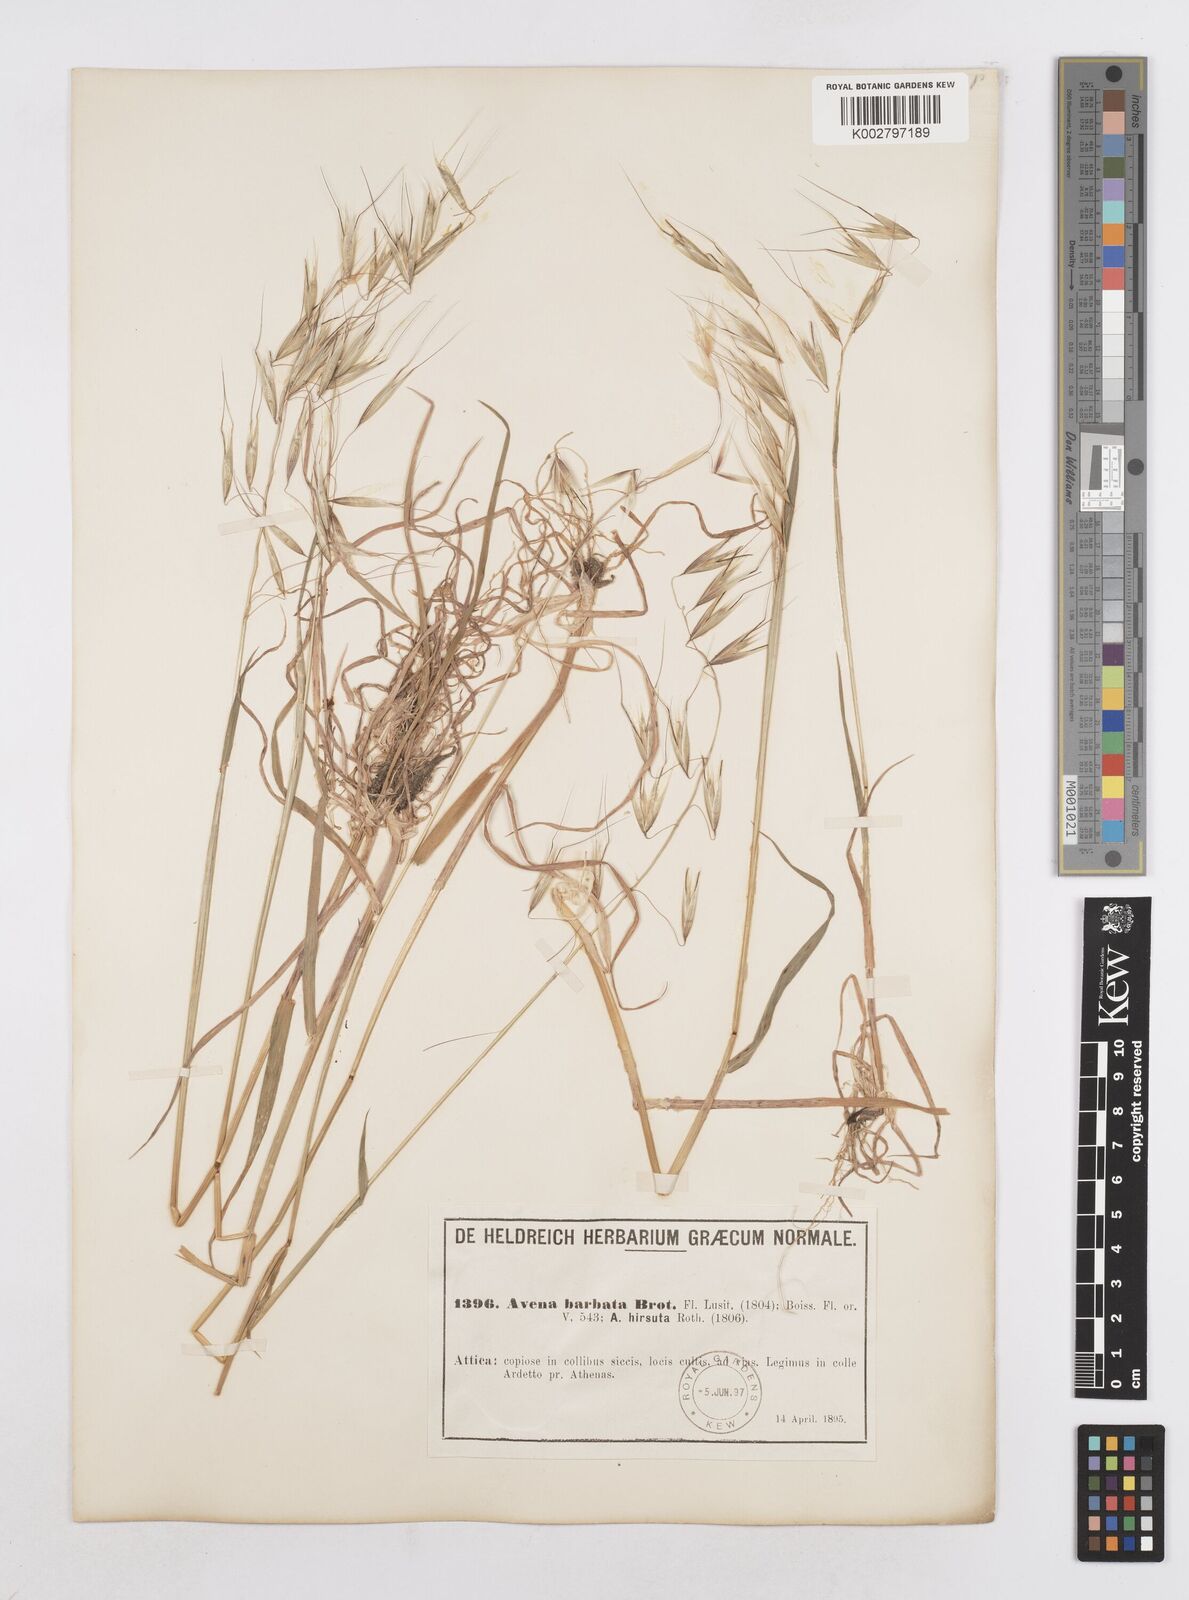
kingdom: Plantae
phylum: Tracheophyta
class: Liliopsida
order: Poales
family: Poaceae
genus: Avena
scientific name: Avena
